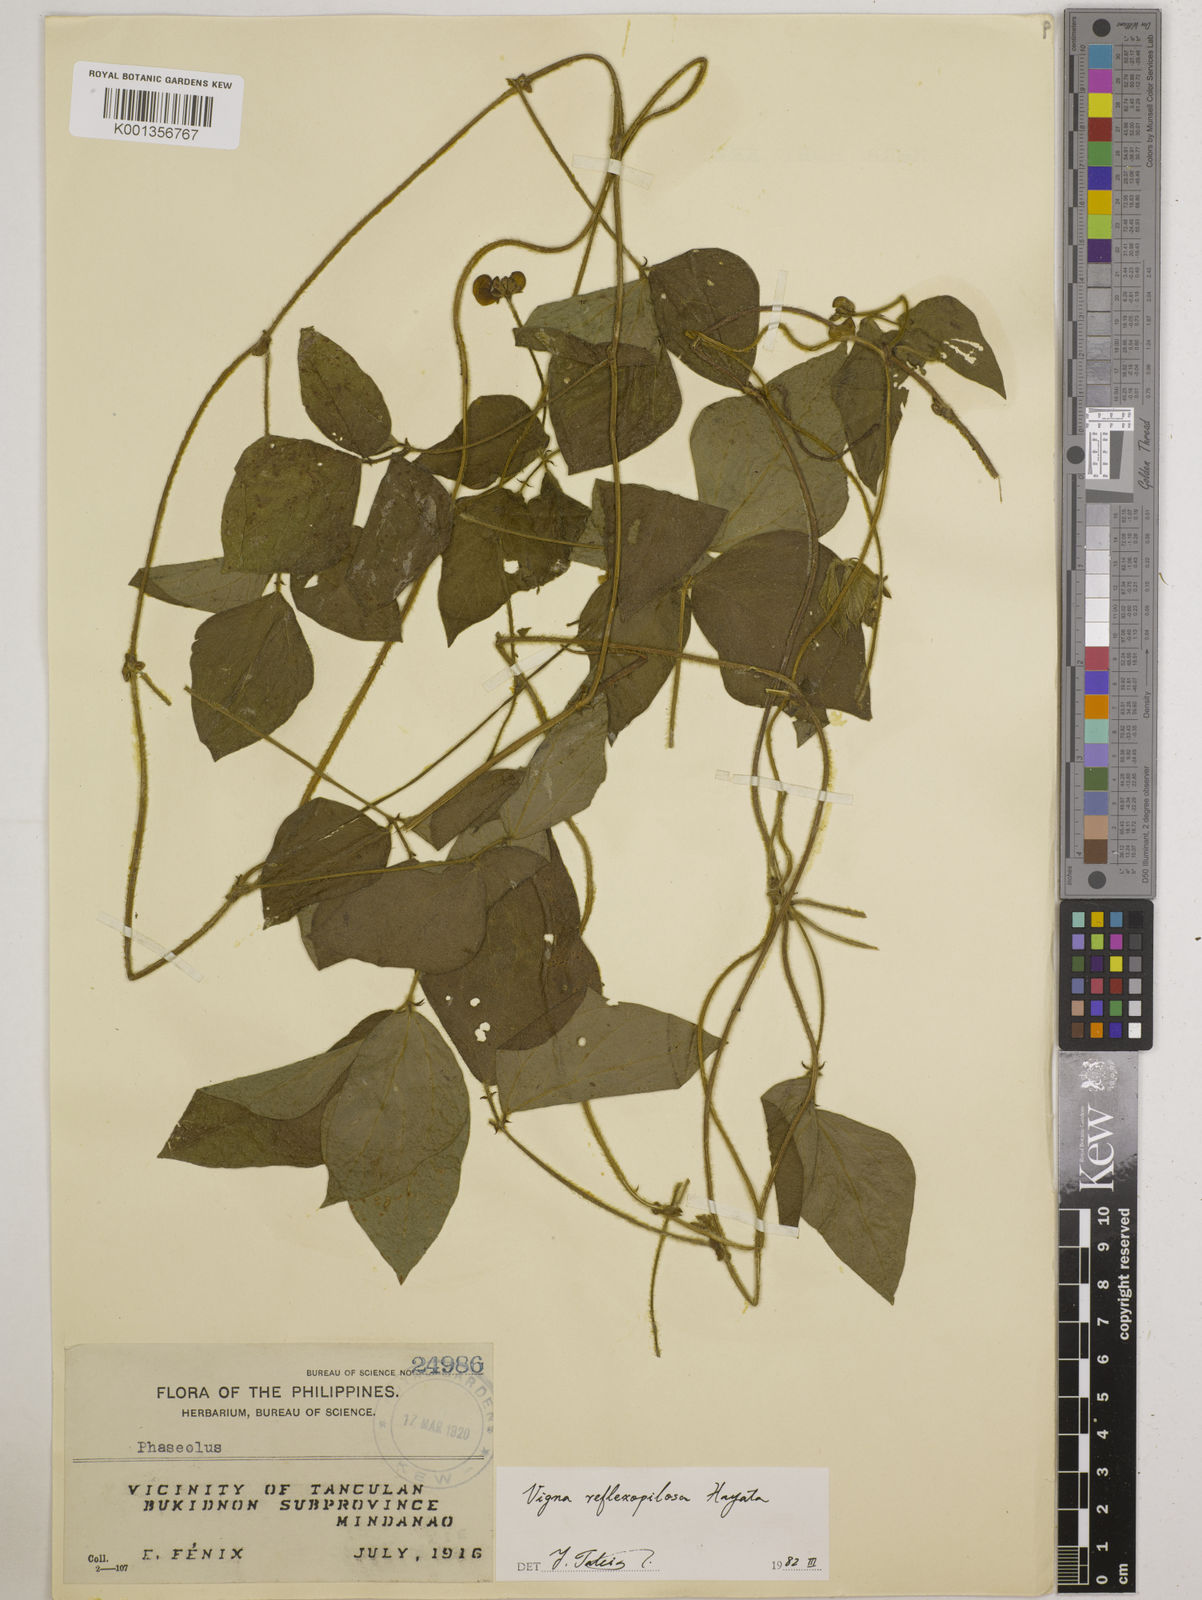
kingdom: Plantae
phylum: Tracheophyta
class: Magnoliopsida
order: Fabales
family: Fabaceae
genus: Vigna
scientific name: Vigna reflexopilosa
